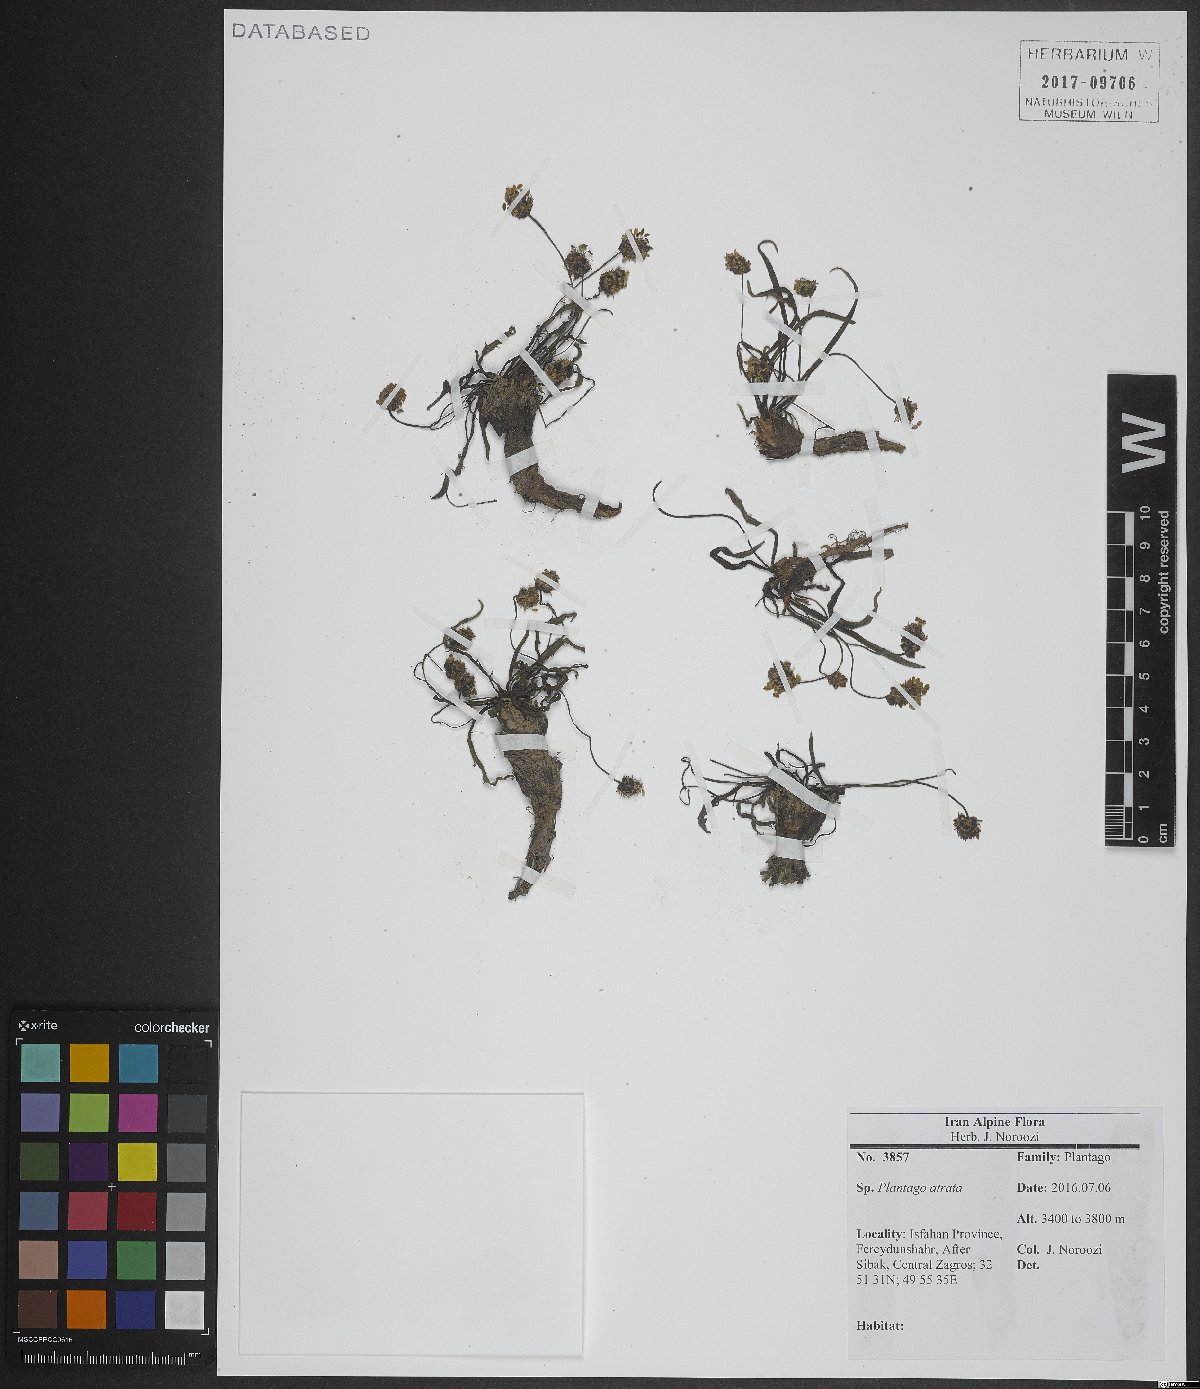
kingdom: Plantae
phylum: Tracheophyta
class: Magnoliopsida
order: Lamiales
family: Plantaginaceae
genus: Plantago
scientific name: Plantago atrata
